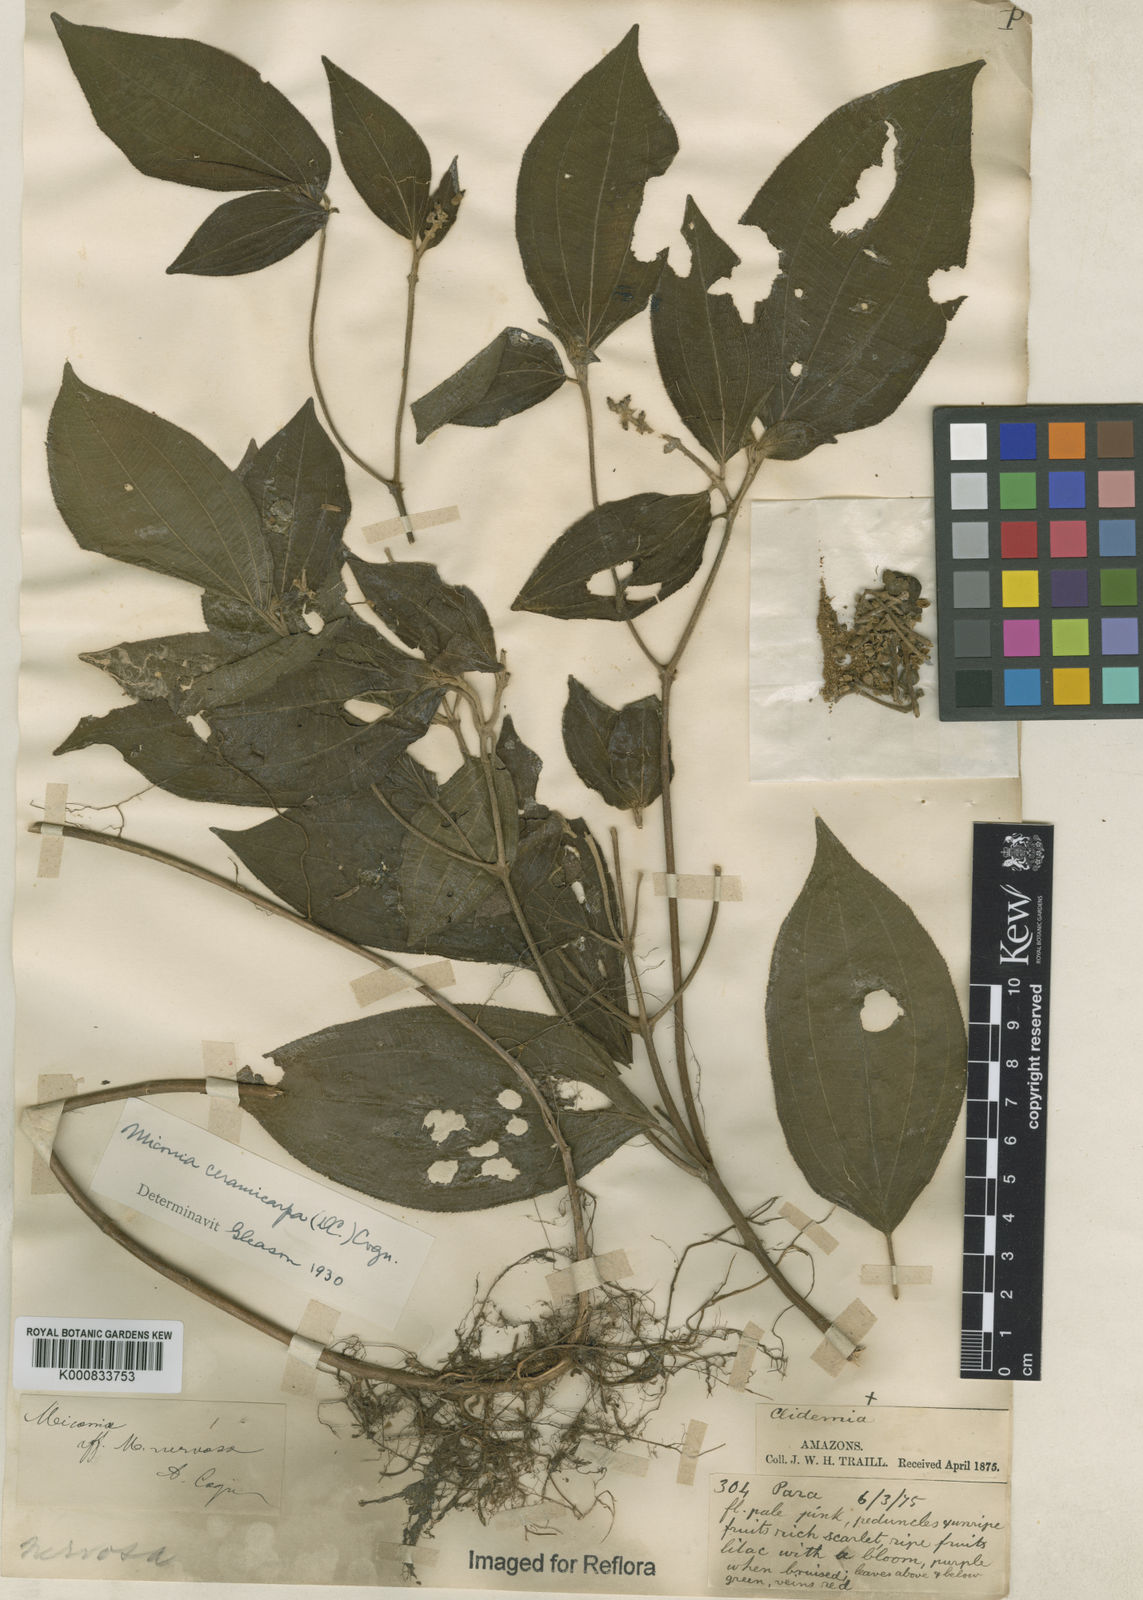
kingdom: Plantae
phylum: Tracheophyta
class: Magnoliopsida
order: Myrtales
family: Melastomataceae
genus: Miconia
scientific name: Miconia ceramicarpa
